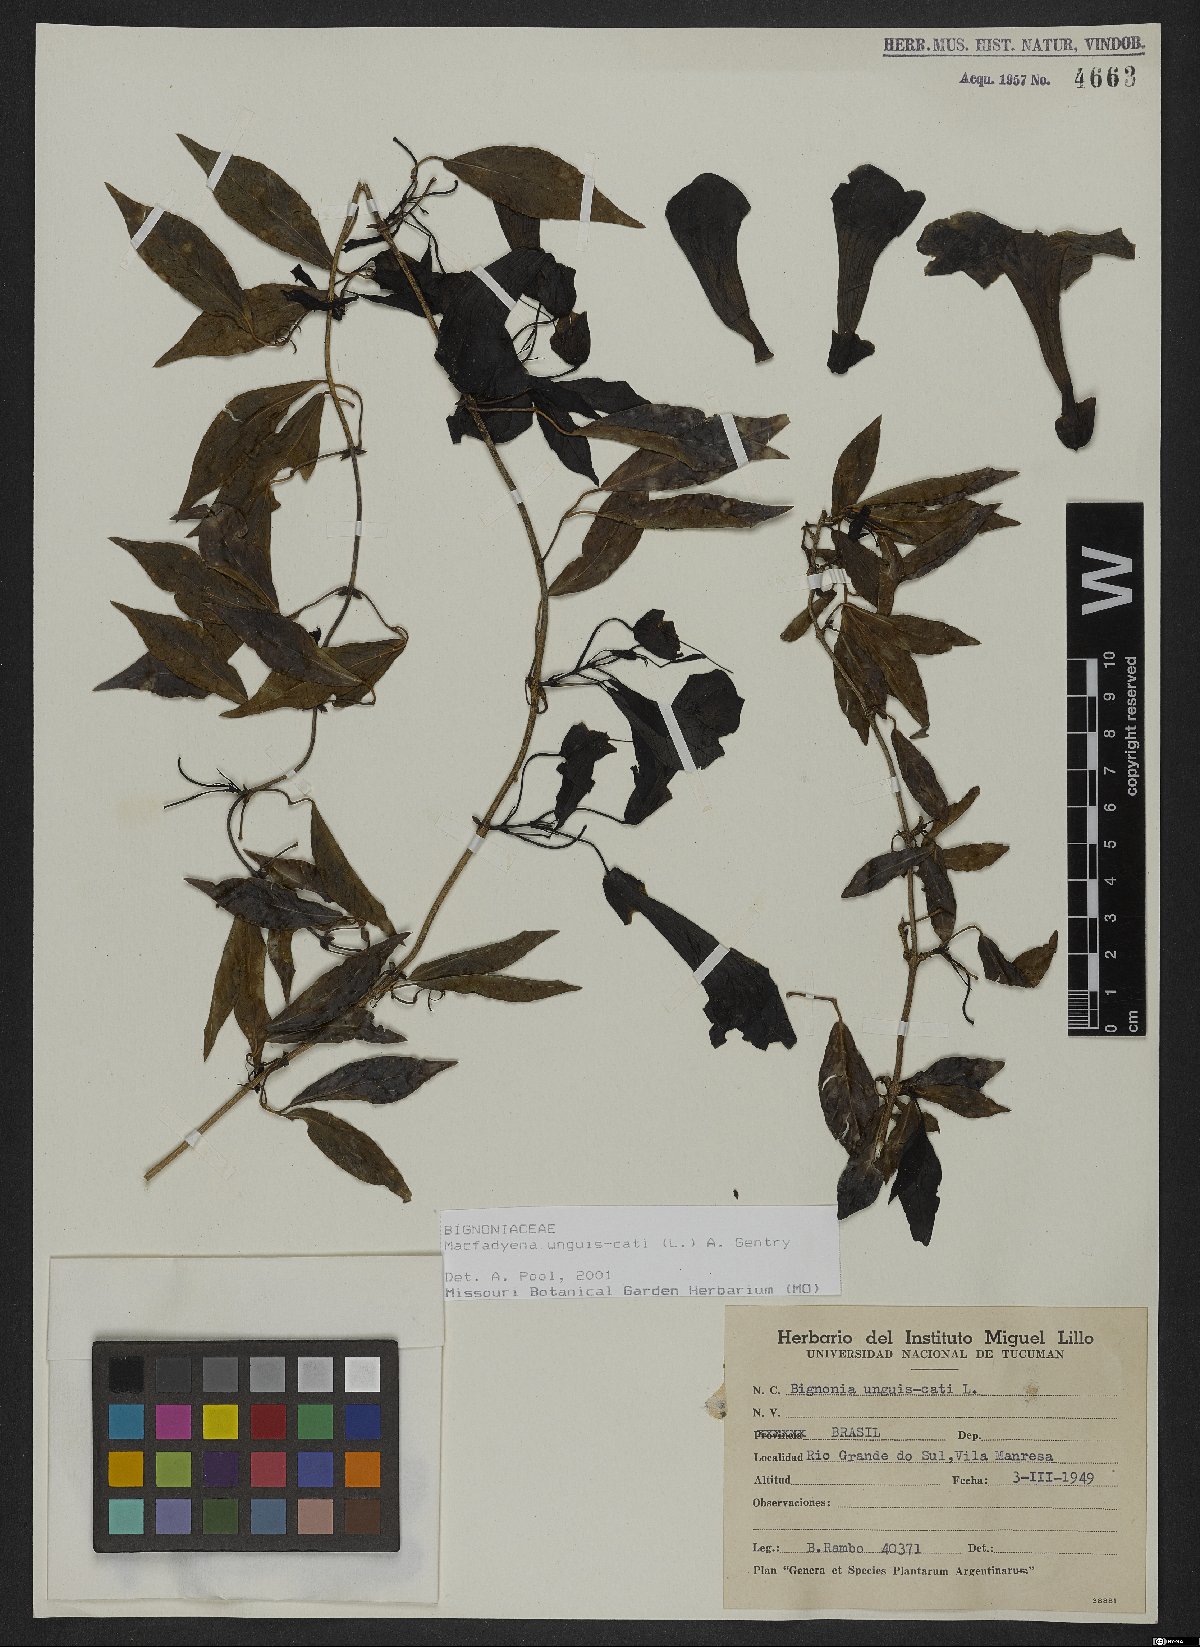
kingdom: Plantae
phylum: Tracheophyta
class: Magnoliopsida
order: Lamiales
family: Bignoniaceae
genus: Dolichandra
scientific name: Dolichandra unguis-cati
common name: Catclaw vine
